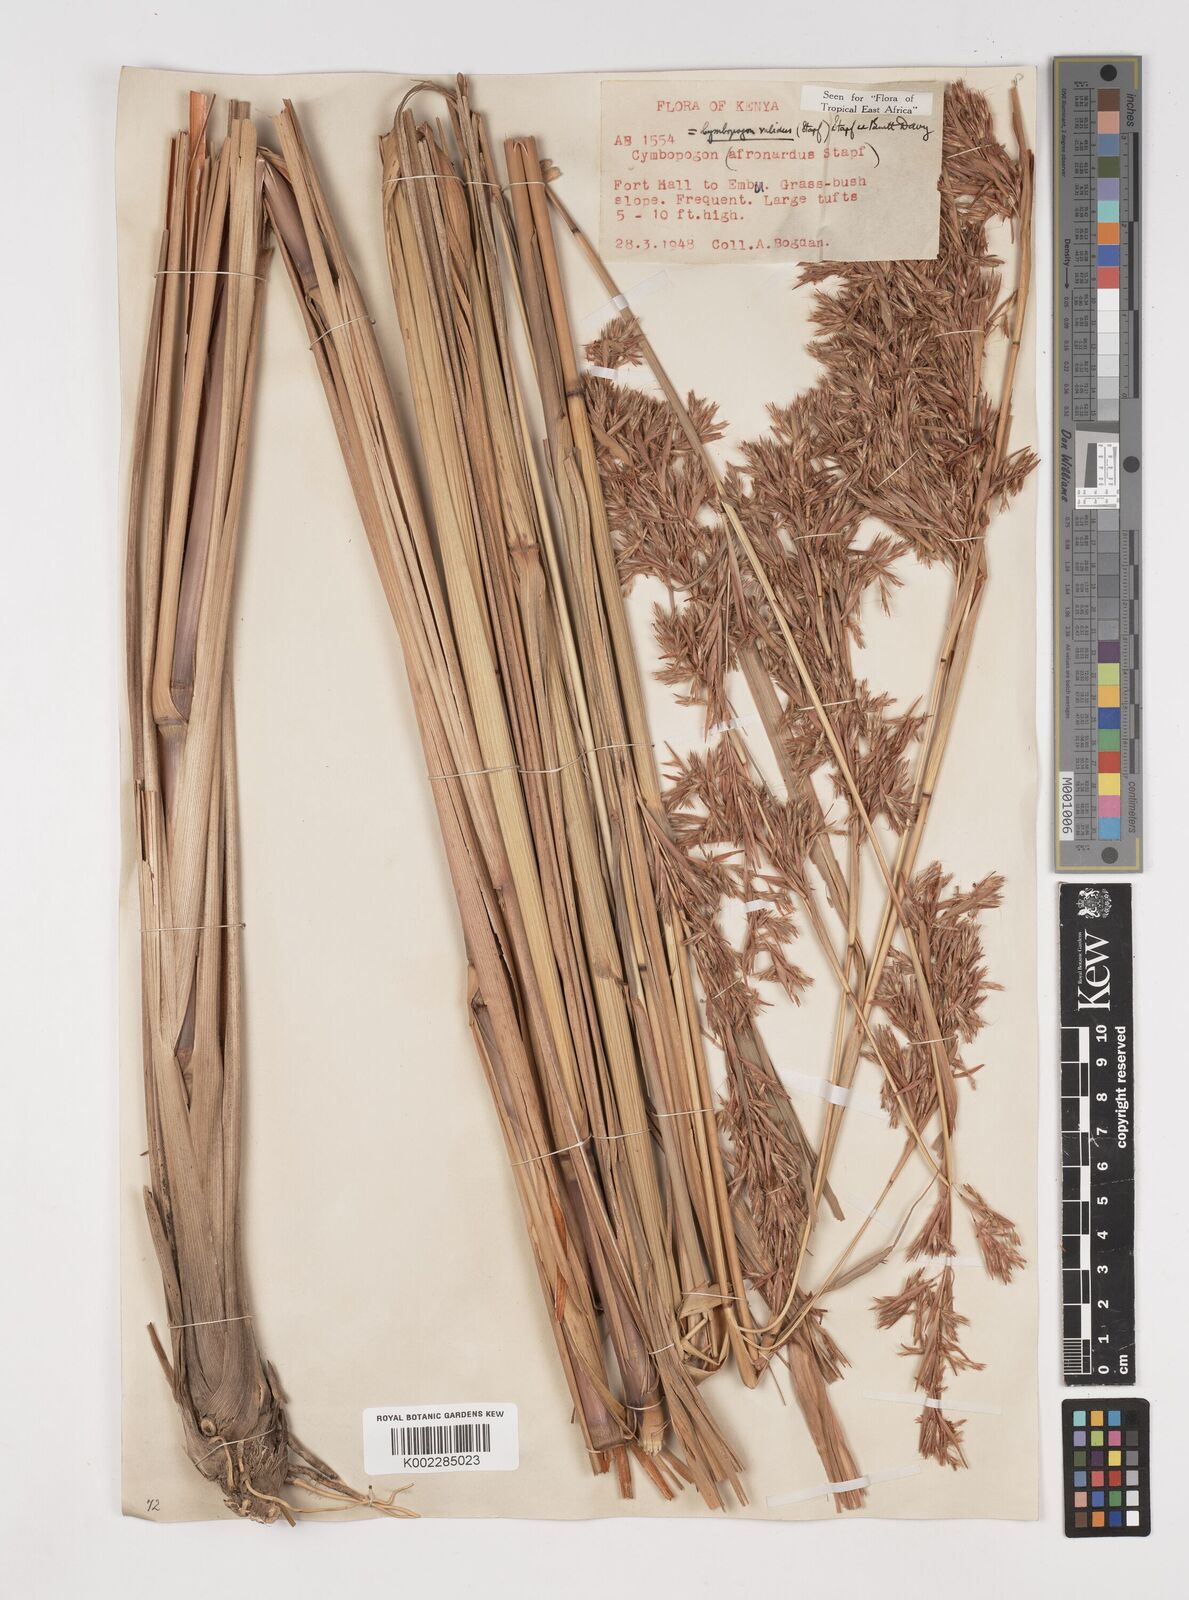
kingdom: Plantae
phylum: Tracheophyta
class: Liliopsida
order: Poales
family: Poaceae
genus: Cymbopogon
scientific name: Cymbopogon nardus
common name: Giant turpentine grass
